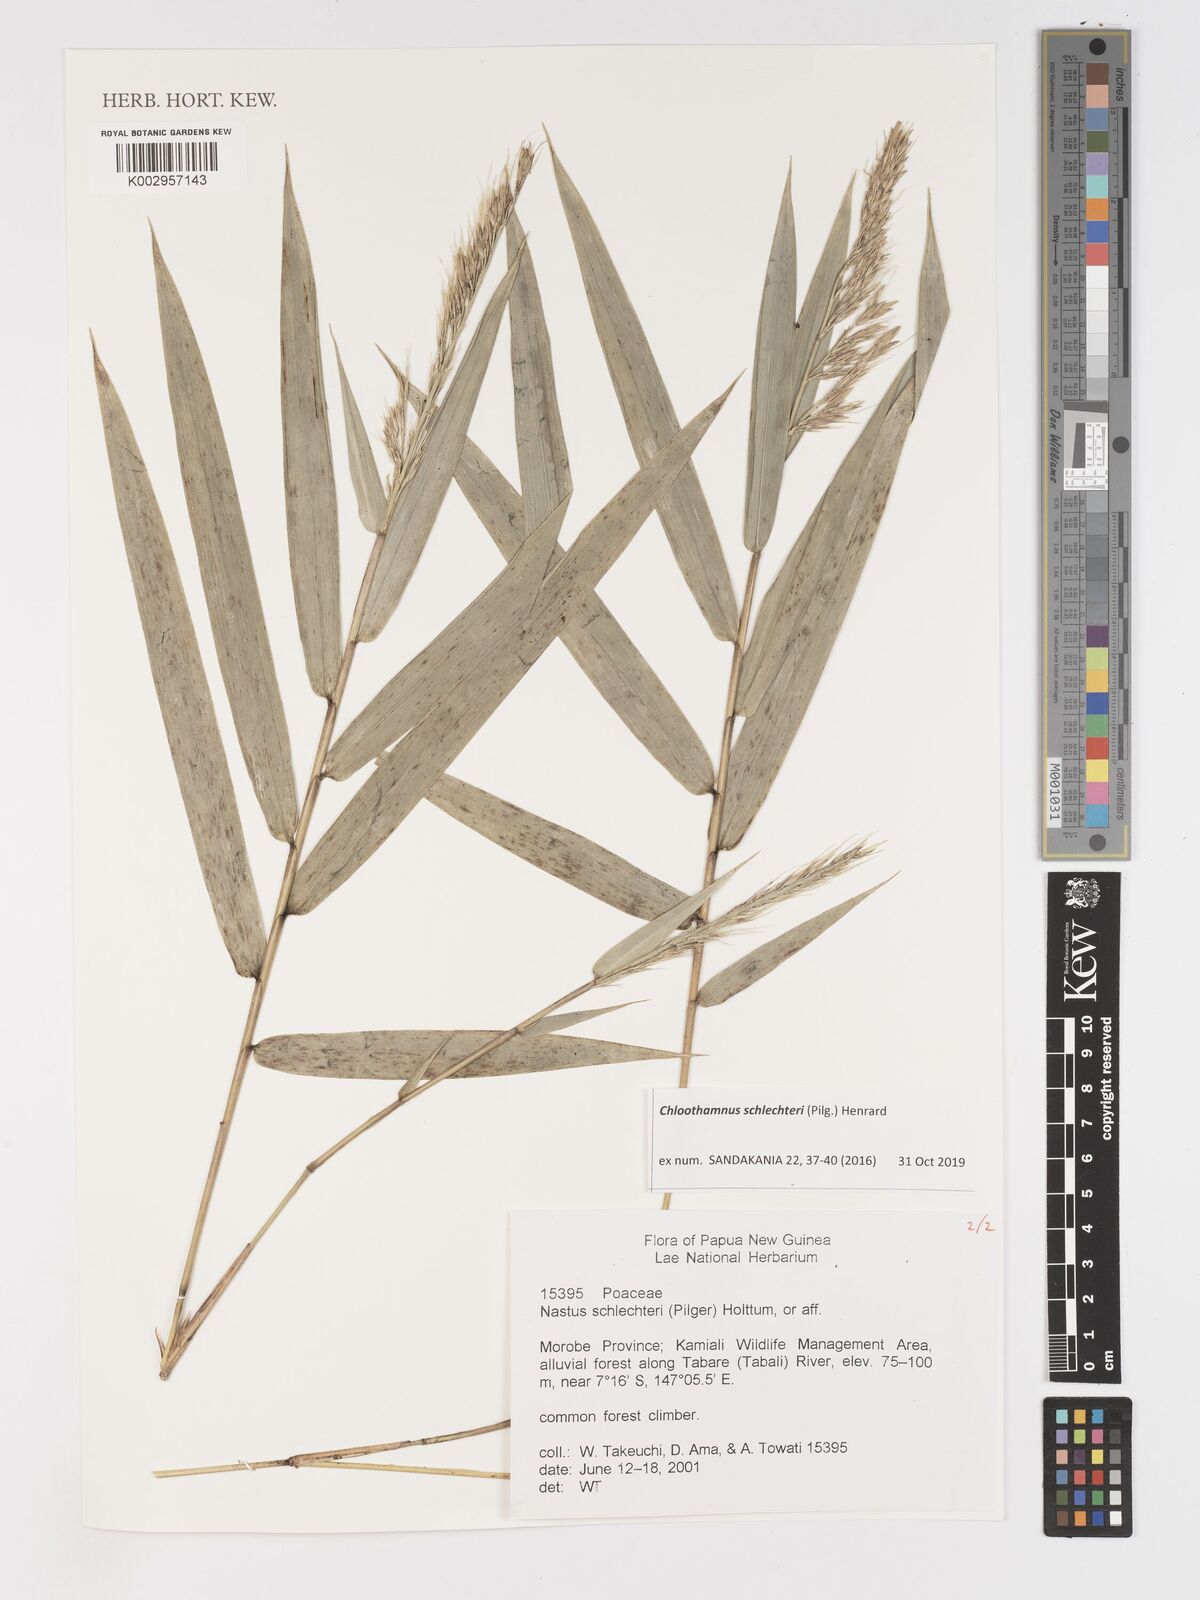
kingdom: Plantae
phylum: Tracheophyta
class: Liliopsida
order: Poales
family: Poaceae
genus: Chloothamnus
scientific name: Chloothamnus schlechteri
